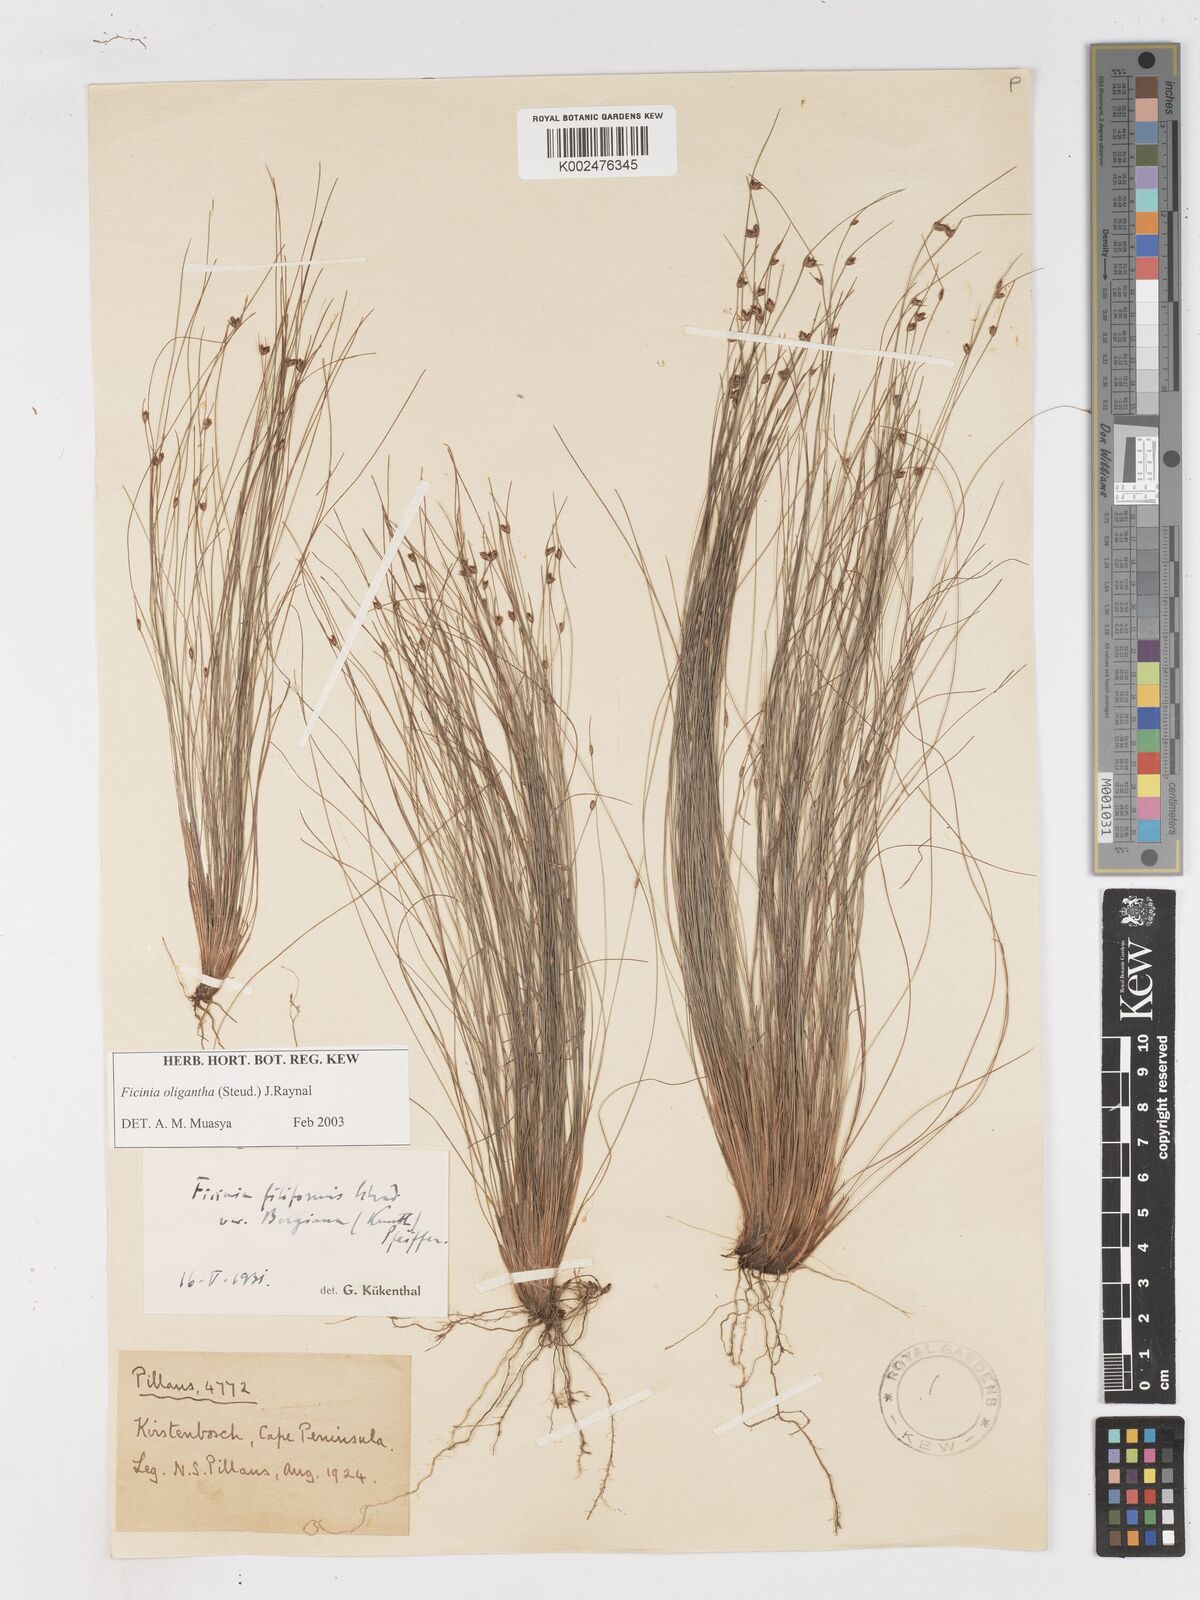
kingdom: Plantae
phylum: Tracheophyta
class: Liliopsida
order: Poales
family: Cyperaceae
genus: Ficinia
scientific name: Ficinia oligantha
